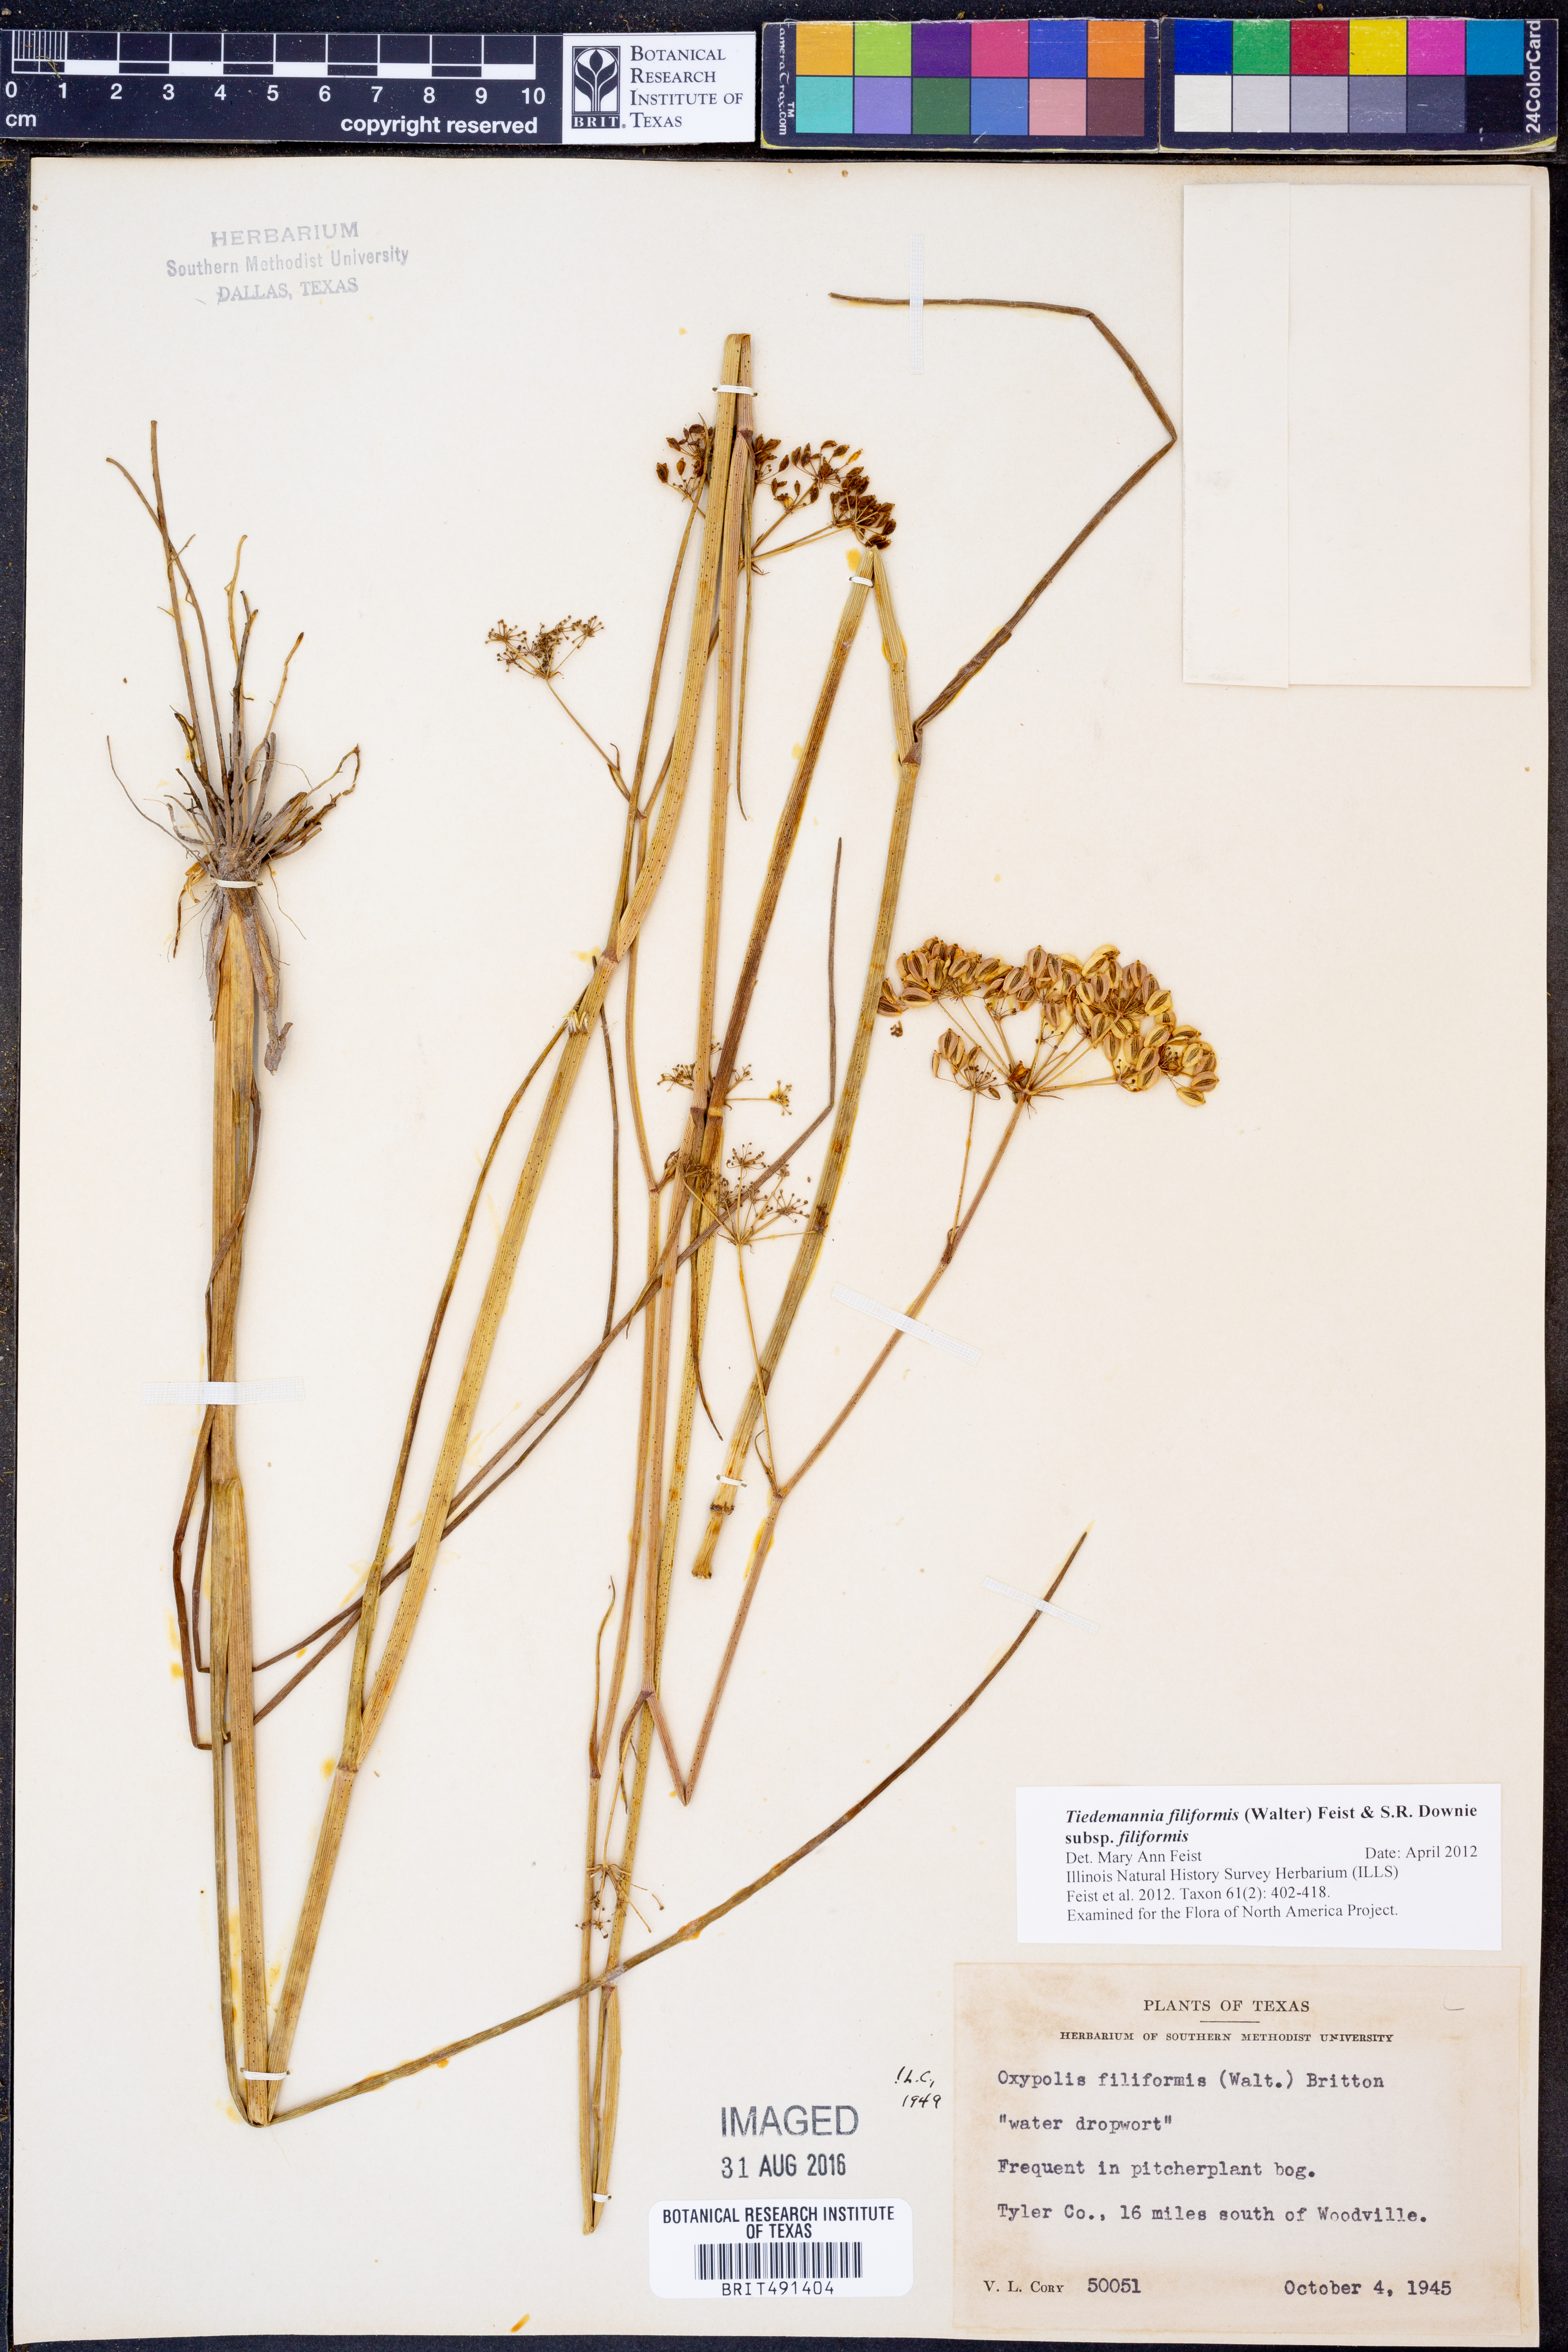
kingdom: Plantae
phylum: Tracheophyta
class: Magnoliopsida
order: Apiales
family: Apiaceae
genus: Tiedemannia
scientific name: Tiedemannia filiformis
